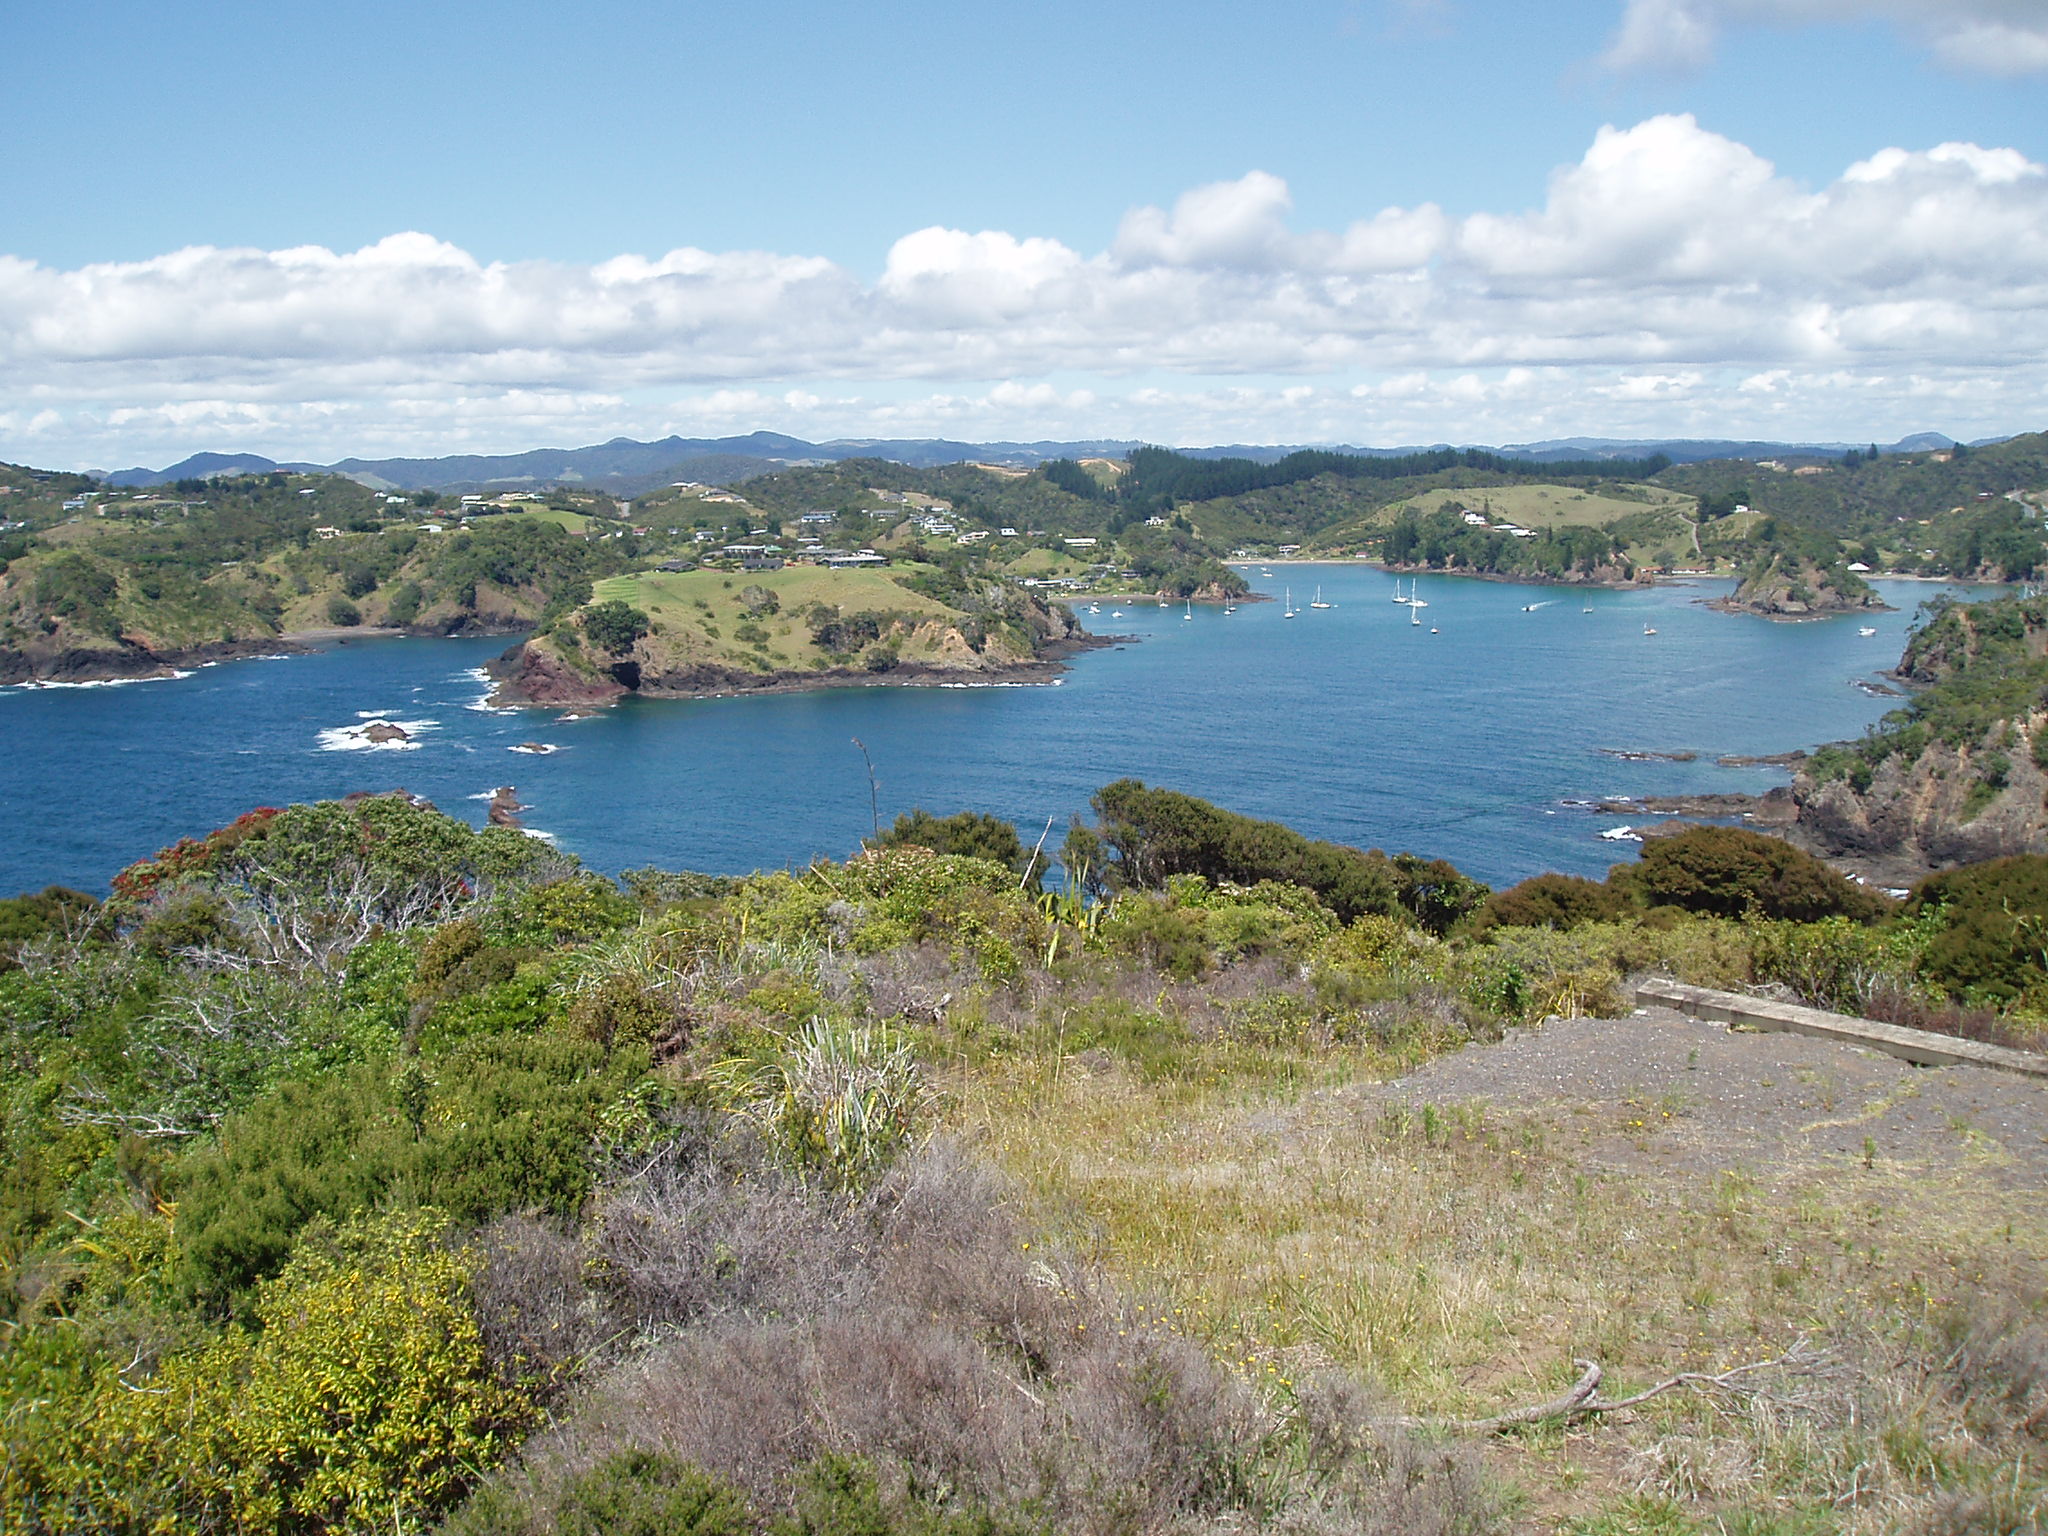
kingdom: Plantae
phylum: Tracheophyta
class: Liliopsida
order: Poales
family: Poaceae
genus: Cenchrus
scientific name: Cenchrus clandestinus
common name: Kikuyugrass
